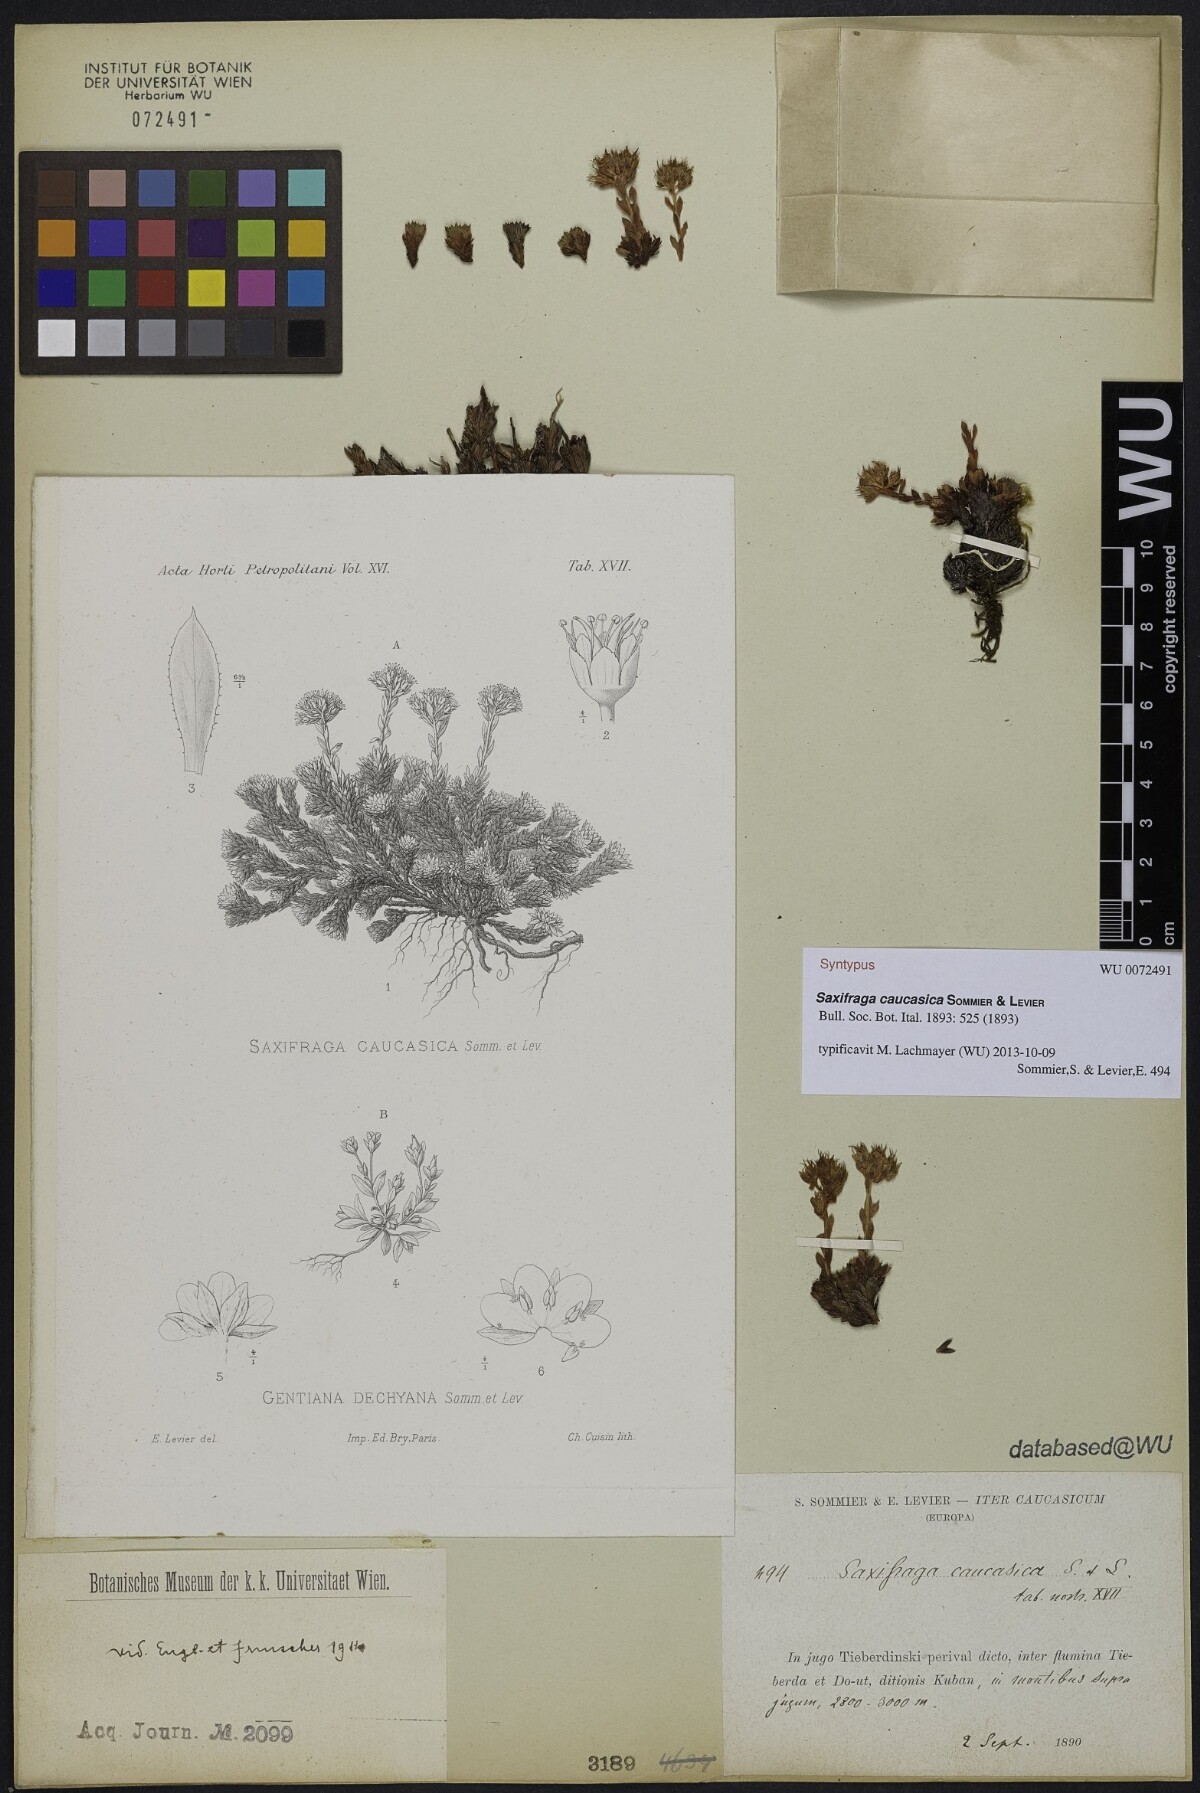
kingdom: Plantae
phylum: Tracheophyta
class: Magnoliopsida
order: Saxifragales
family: Saxifragaceae
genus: Saxifraga
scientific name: Saxifraga caucasica
